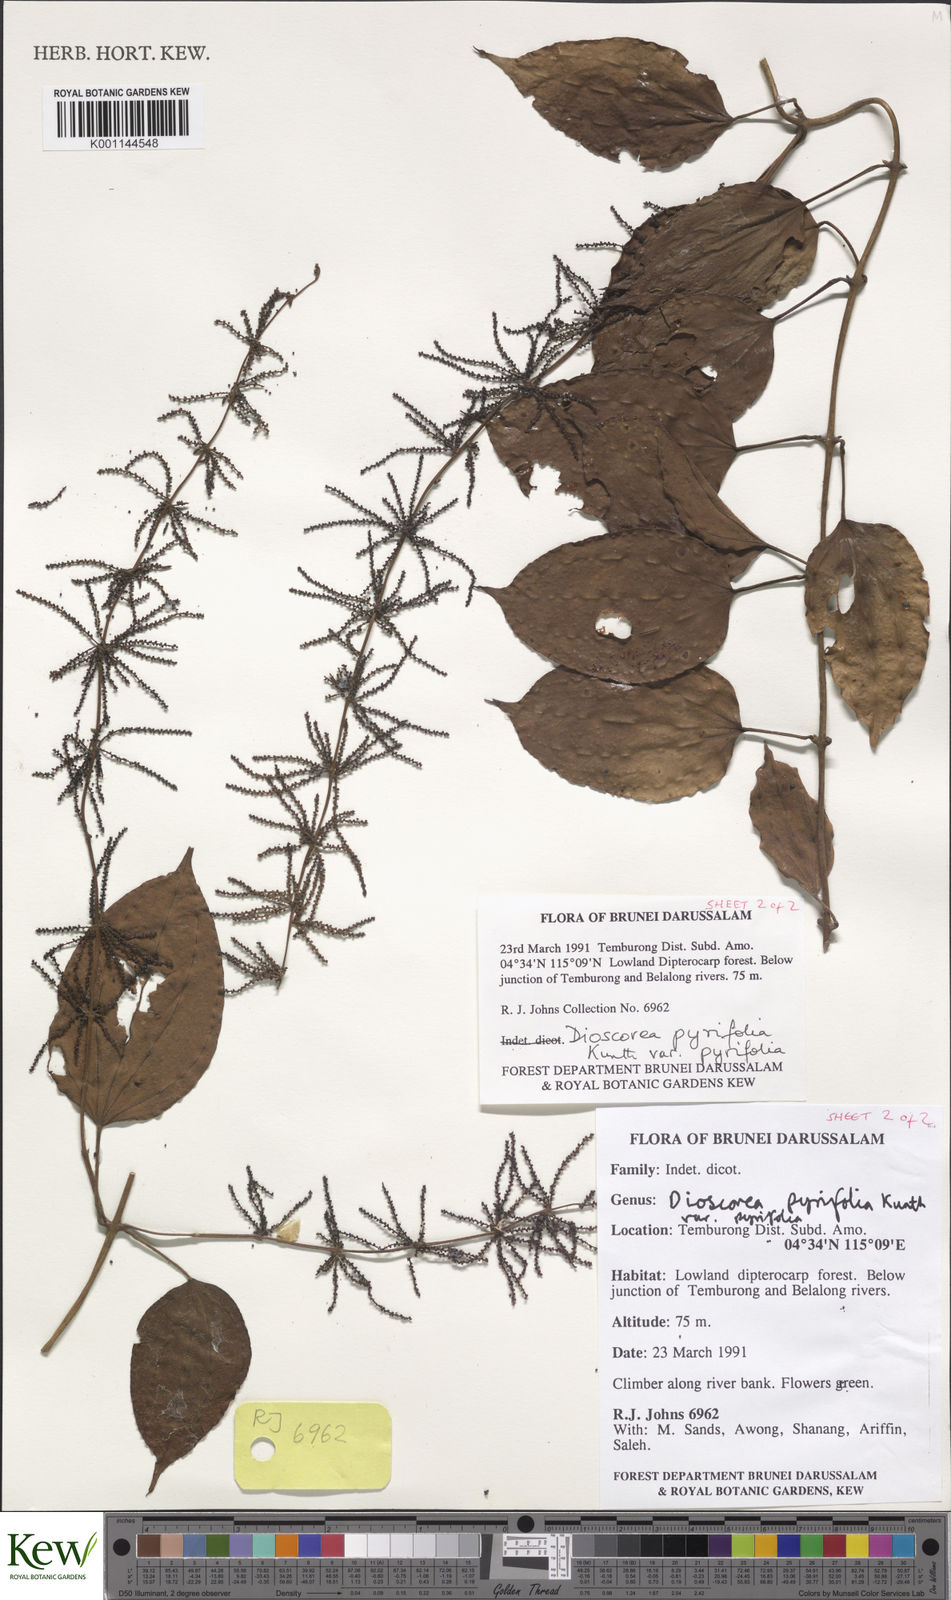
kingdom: Plantae
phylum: Tracheophyta
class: Liliopsida
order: Dioscoreales
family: Dioscoreaceae
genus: Dioscorea
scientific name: Dioscorea pyrifolia
